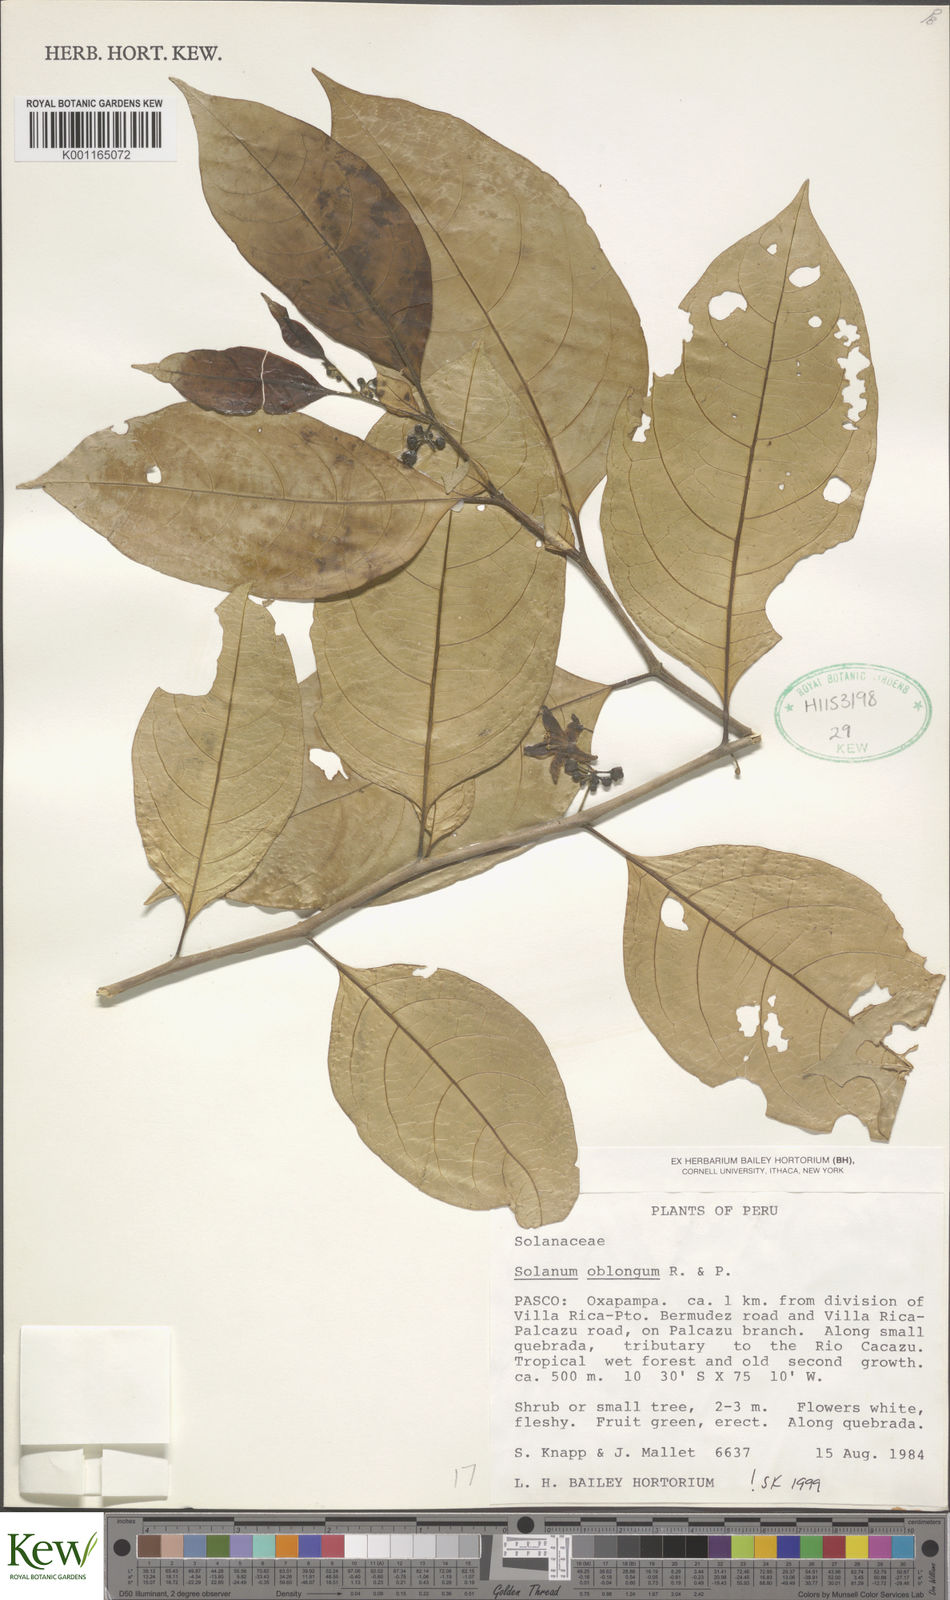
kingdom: Plantae
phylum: Tracheophyta
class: Magnoliopsida
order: Solanales
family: Solanaceae
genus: Solanum
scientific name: Solanum oblongum
